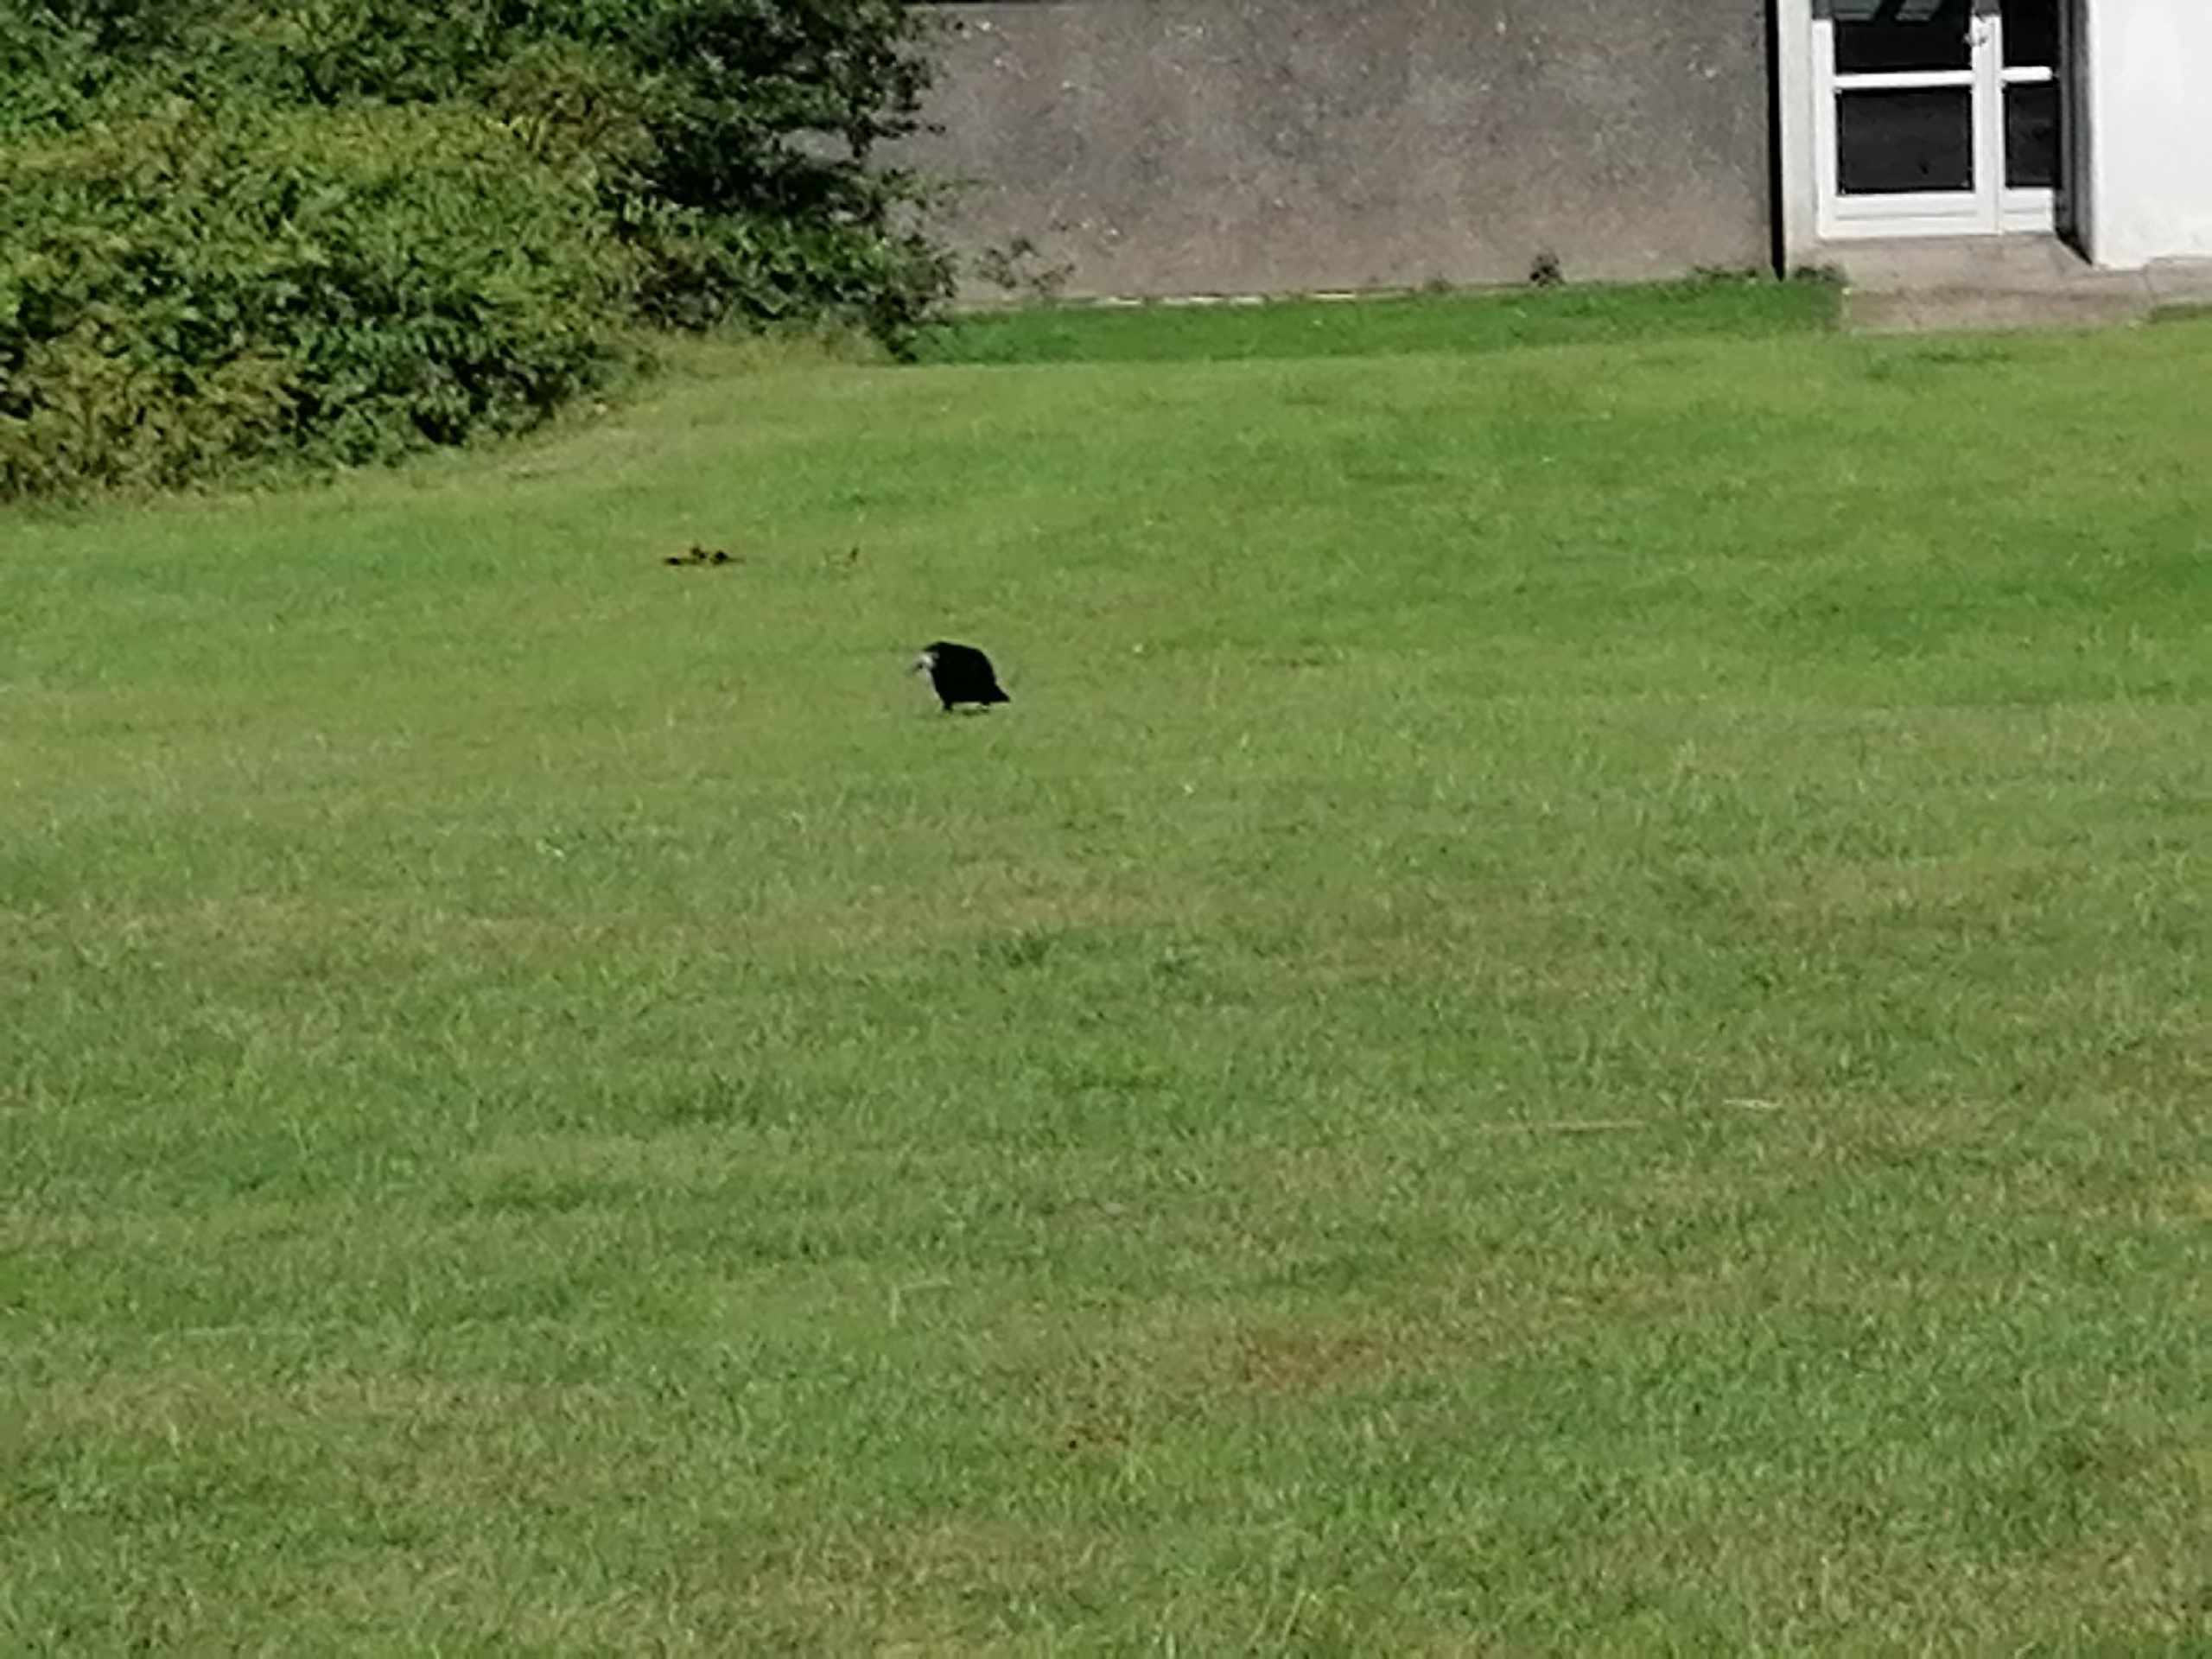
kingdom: Animalia
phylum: Chordata
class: Aves
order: Passeriformes
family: Corvidae
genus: Corvus
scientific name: Corvus frugilegus
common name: Råge
